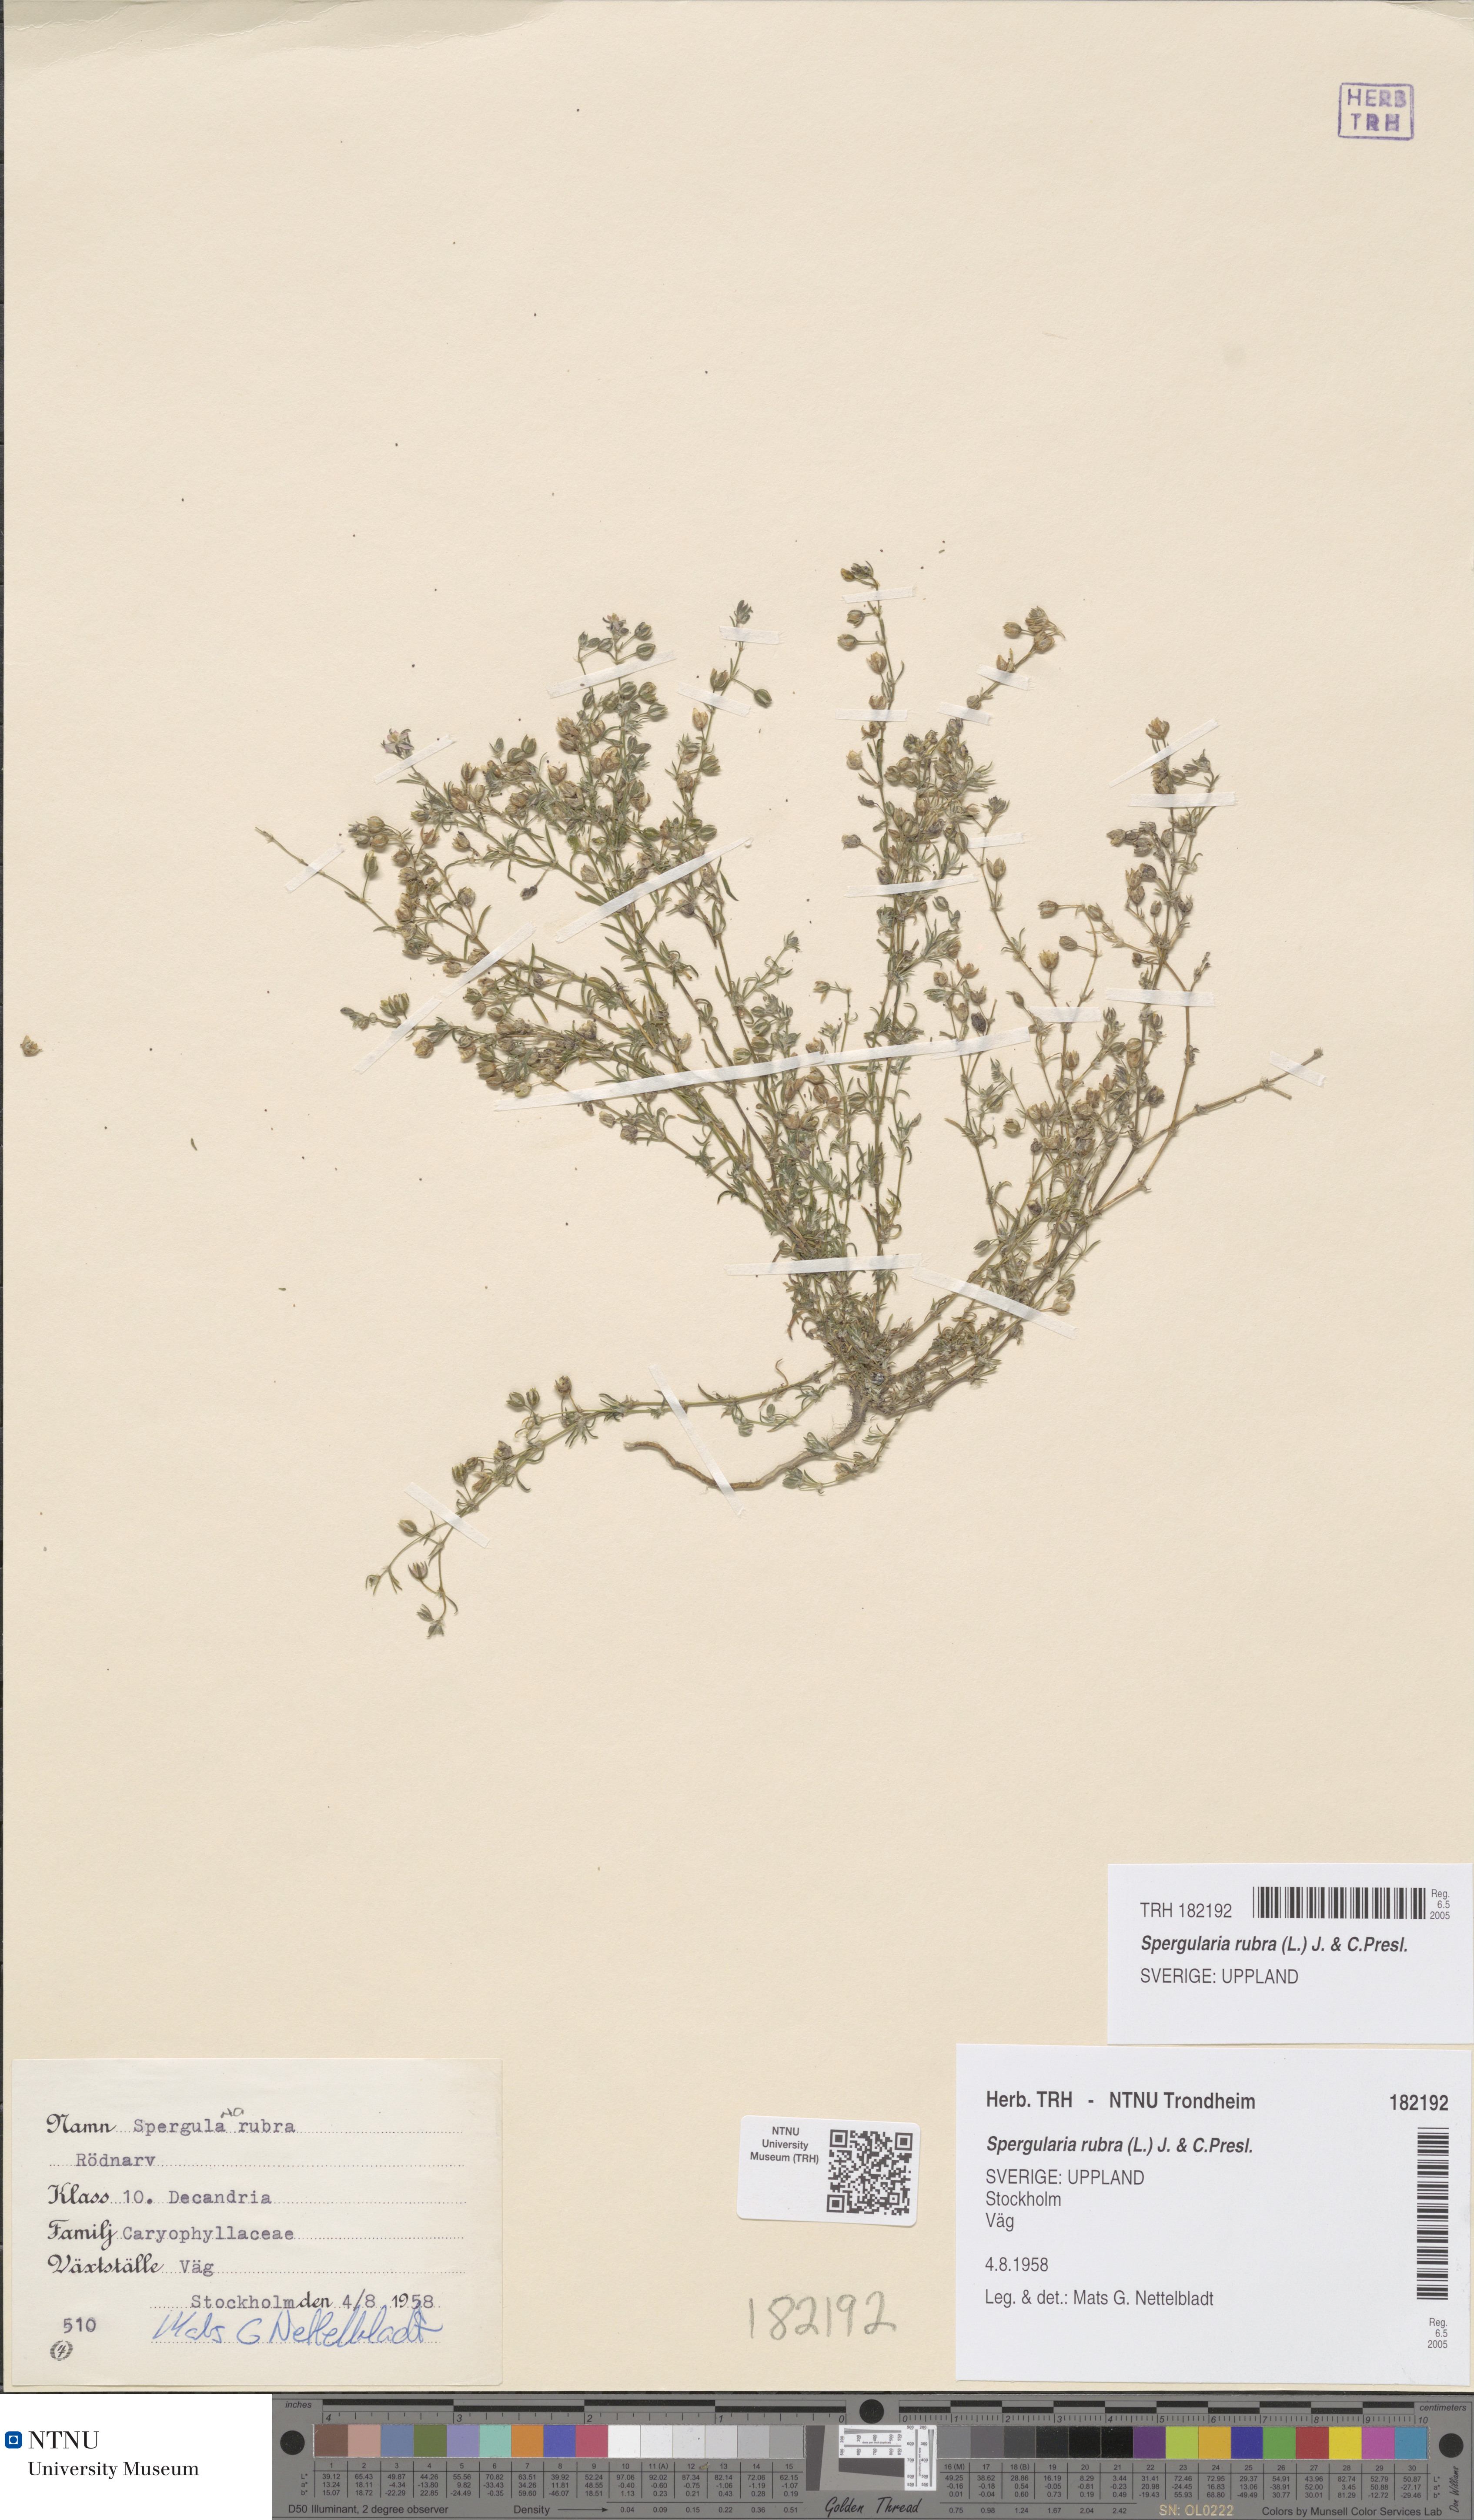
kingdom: Plantae
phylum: Tracheophyta
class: Magnoliopsida
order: Caryophyllales
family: Caryophyllaceae
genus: Spergularia
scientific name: Spergularia rubra
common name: Red sand-spurrey
